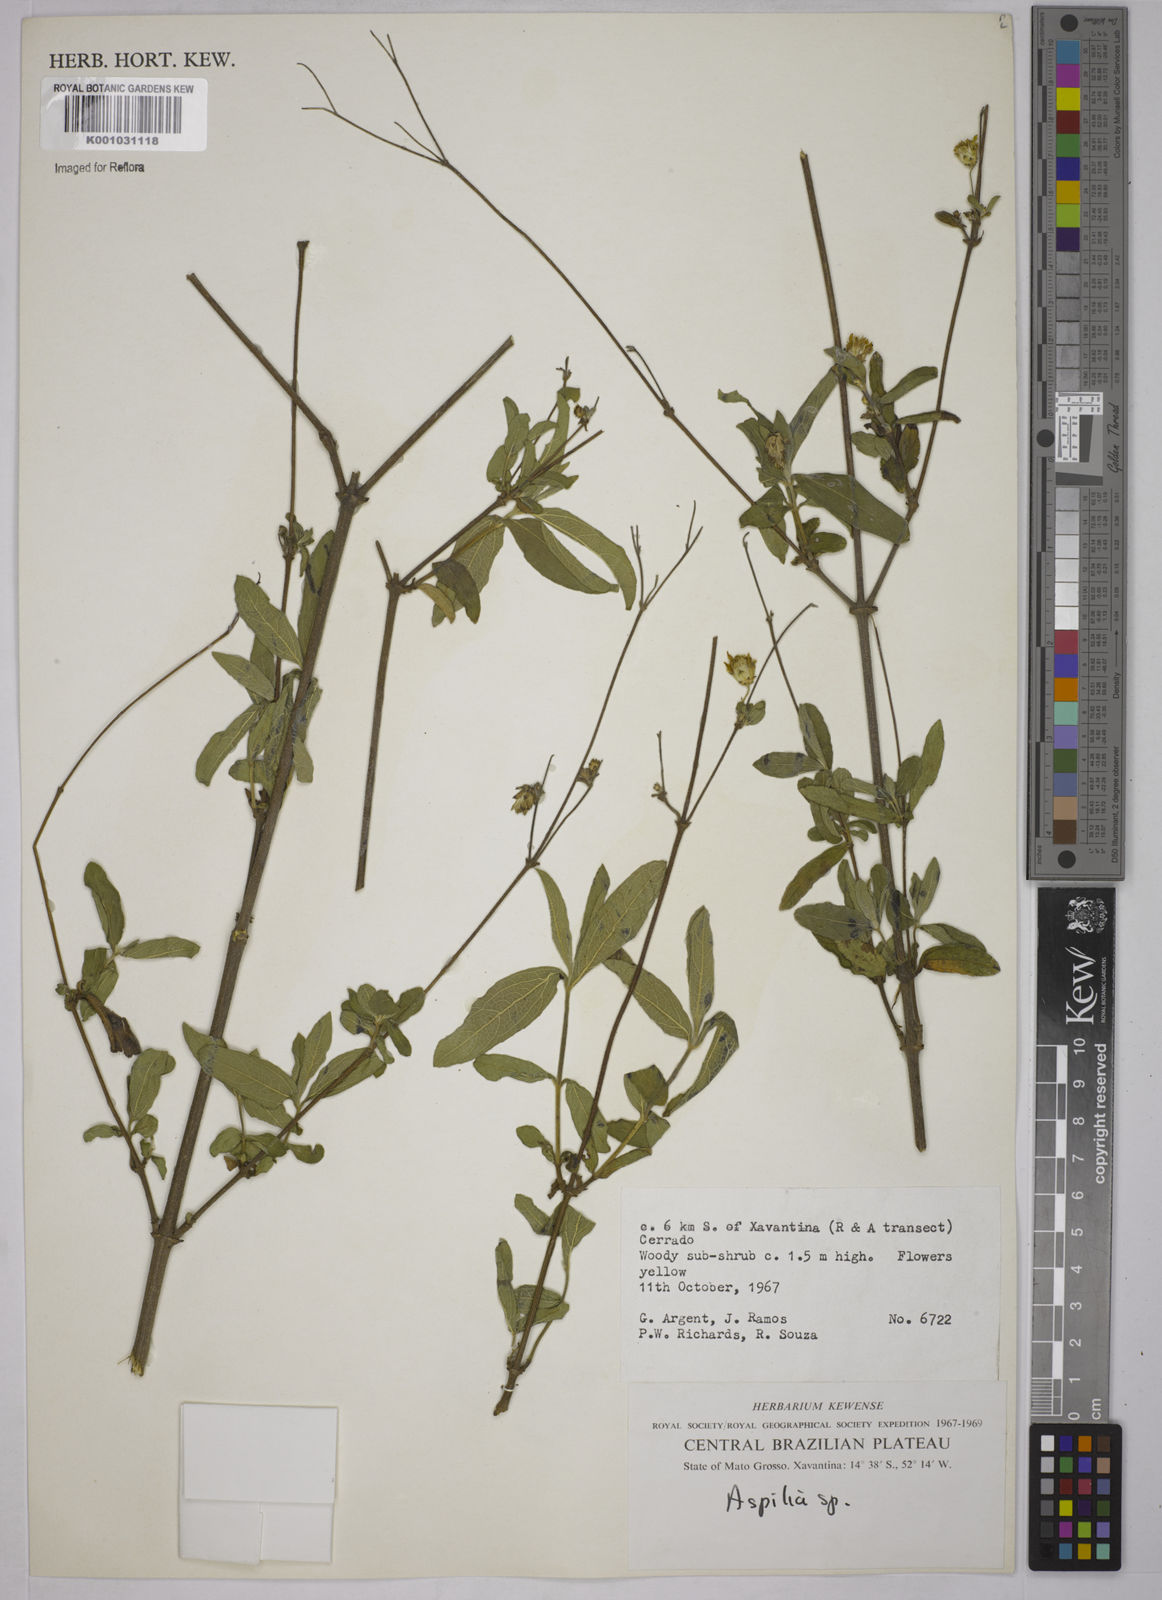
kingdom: Plantae
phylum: Tracheophyta
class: Magnoliopsida
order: Asterales
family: Asteraceae
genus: Aspilia
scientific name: Aspilia
